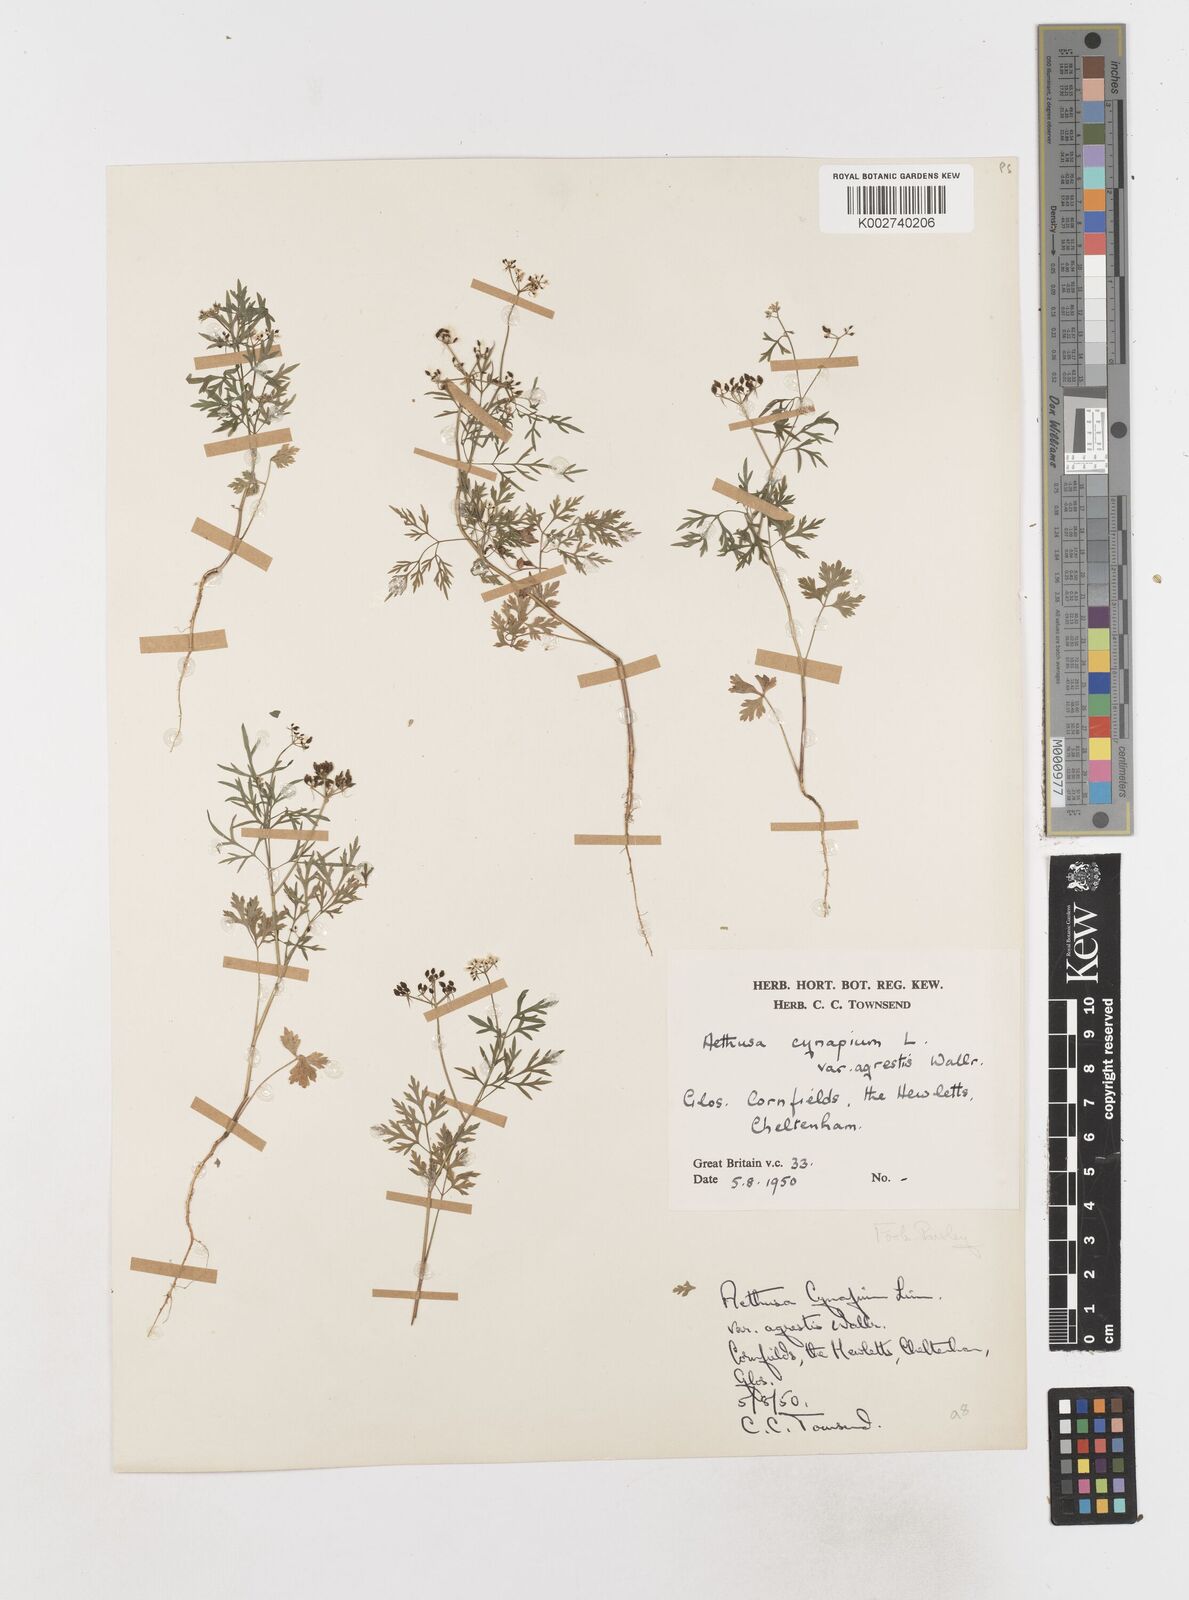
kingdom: Plantae
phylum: Tracheophyta
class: Magnoliopsida
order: Apiales
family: Apiaceae
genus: Aethusa
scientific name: Aethusa cynapium
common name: Fool's parsley
